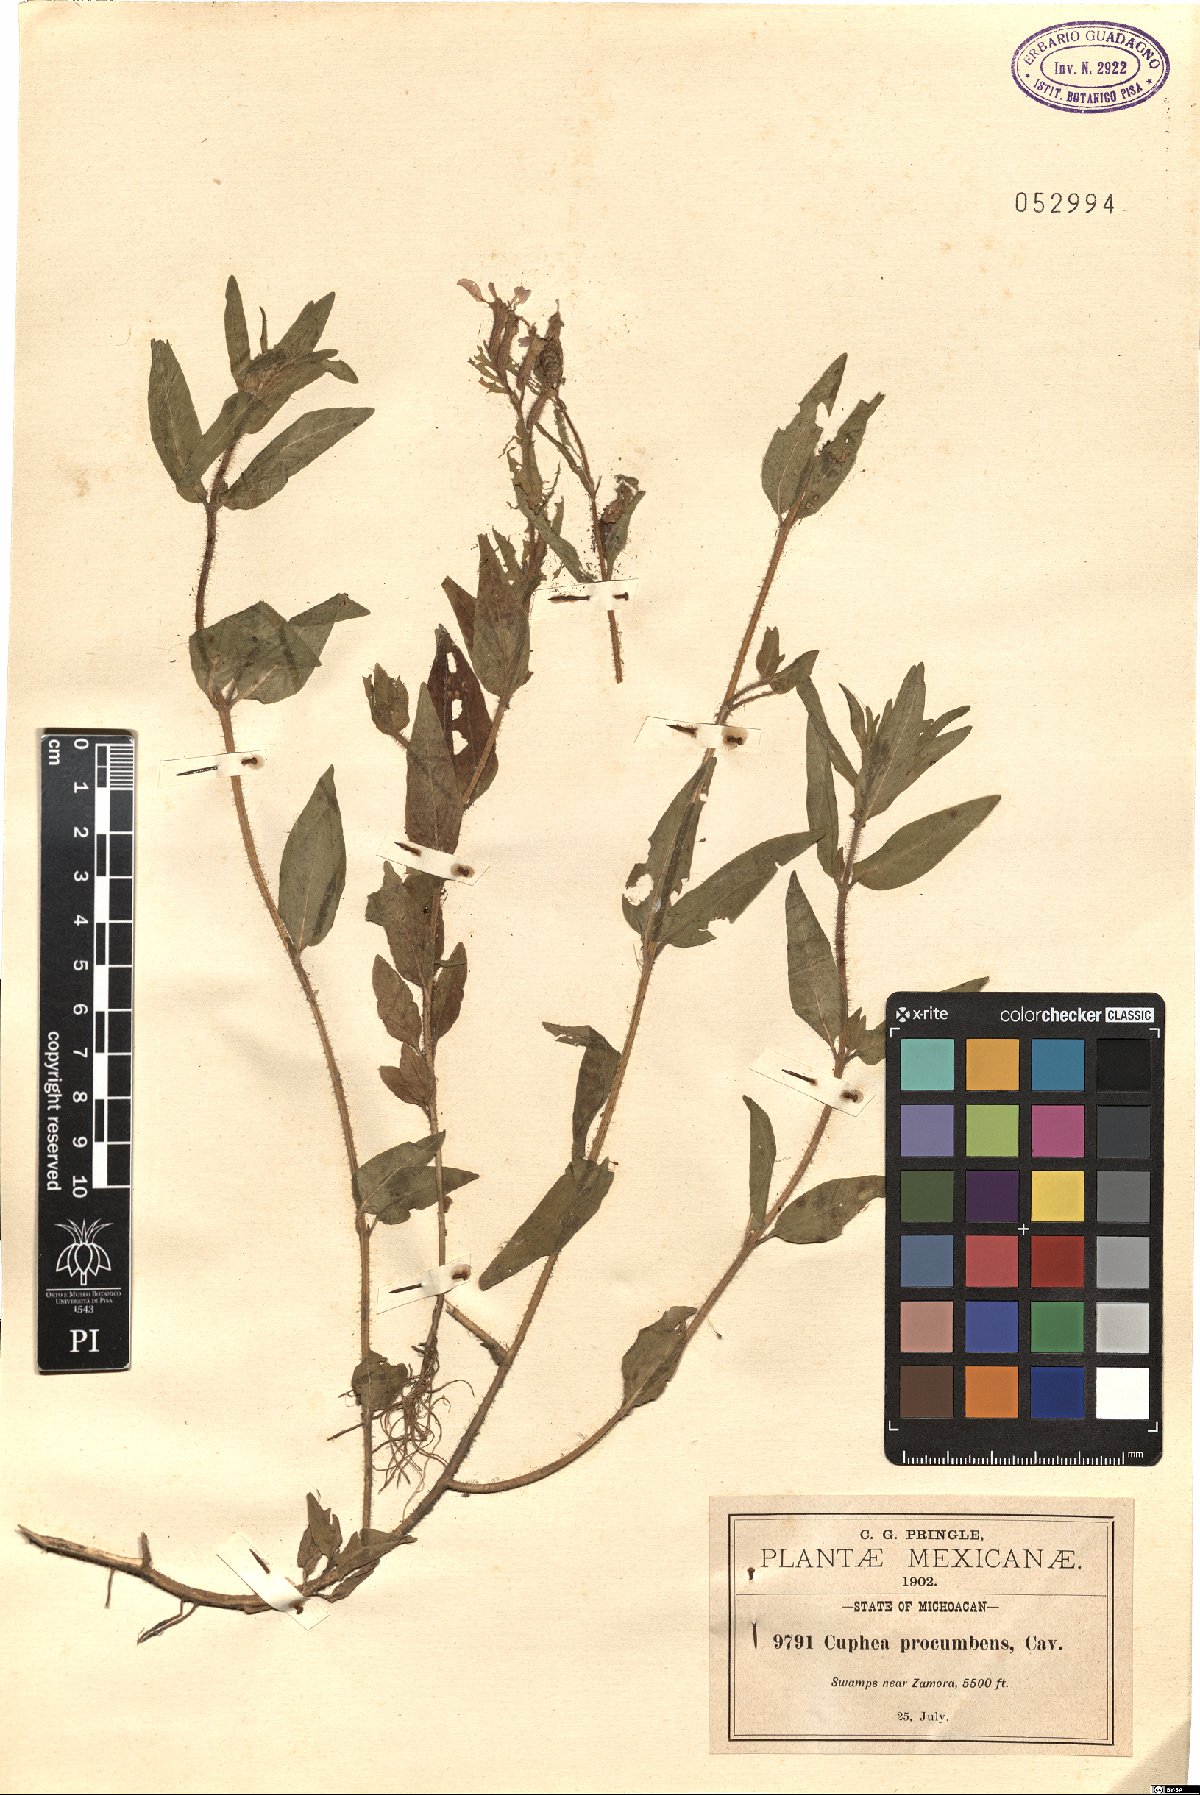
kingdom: Plantae
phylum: Tracheophyta
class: Magnoliopsida
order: Myrtales
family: Lythraceae
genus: Cuphea
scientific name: Cuphea procumbens
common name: Creeping waxweed
